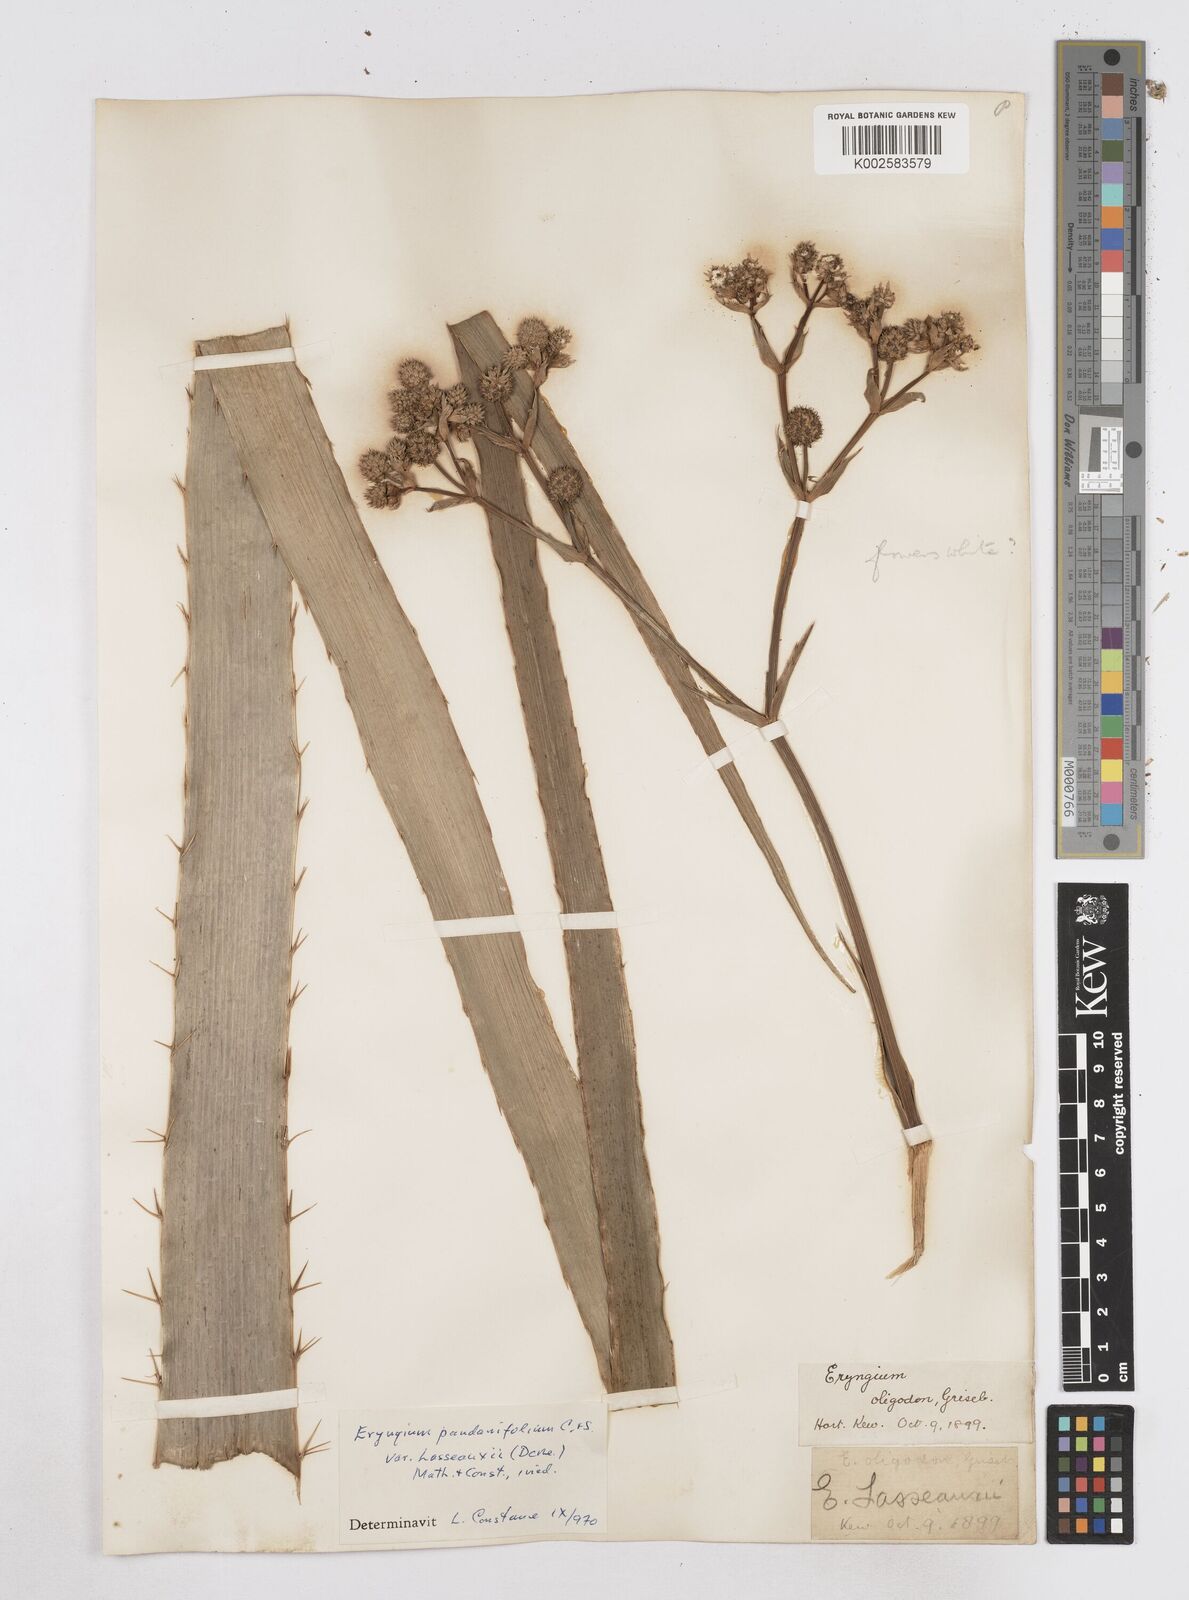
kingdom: Plantae
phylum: Tracheophyta
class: Magnoliopsida
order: Apiales
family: Apiaceae
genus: Eryngium
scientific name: Eryngium pandanifolium
